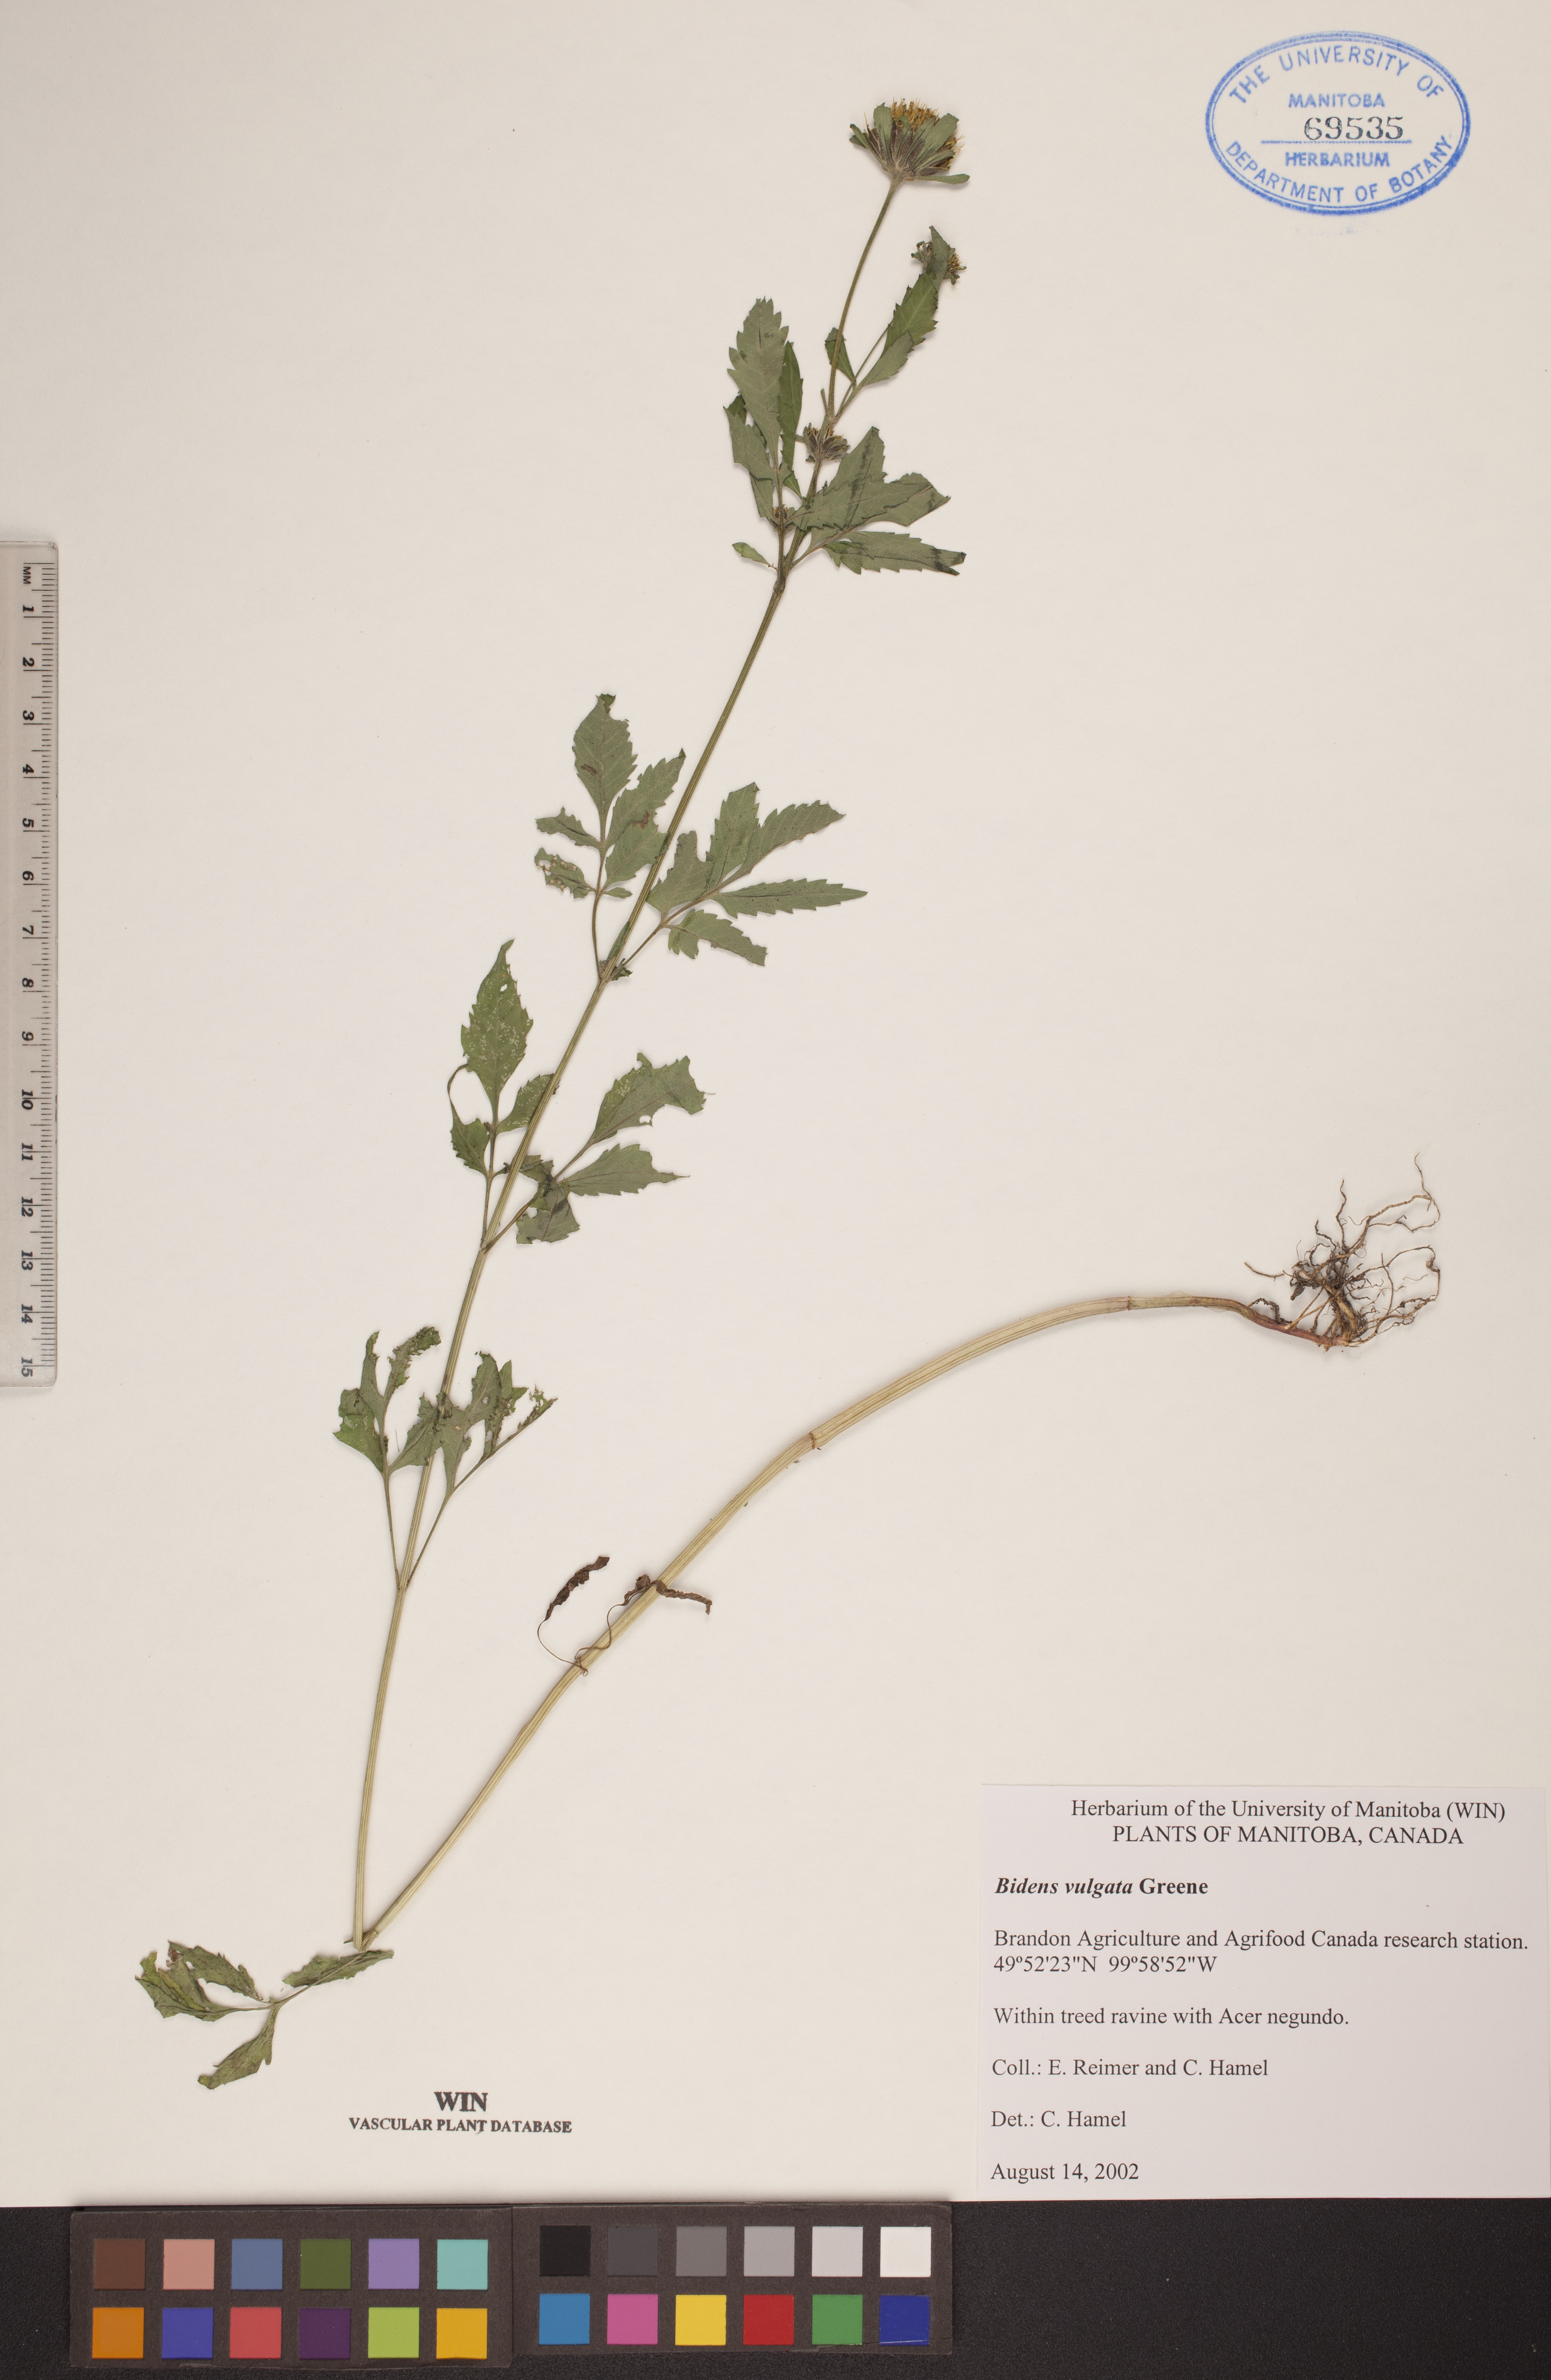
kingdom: Plantae
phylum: Tracheophyta
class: Magnoliopsida
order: Asterales
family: Asteraceae
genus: Bidens
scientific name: Bidens vulgata
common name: Tall beggarticks
